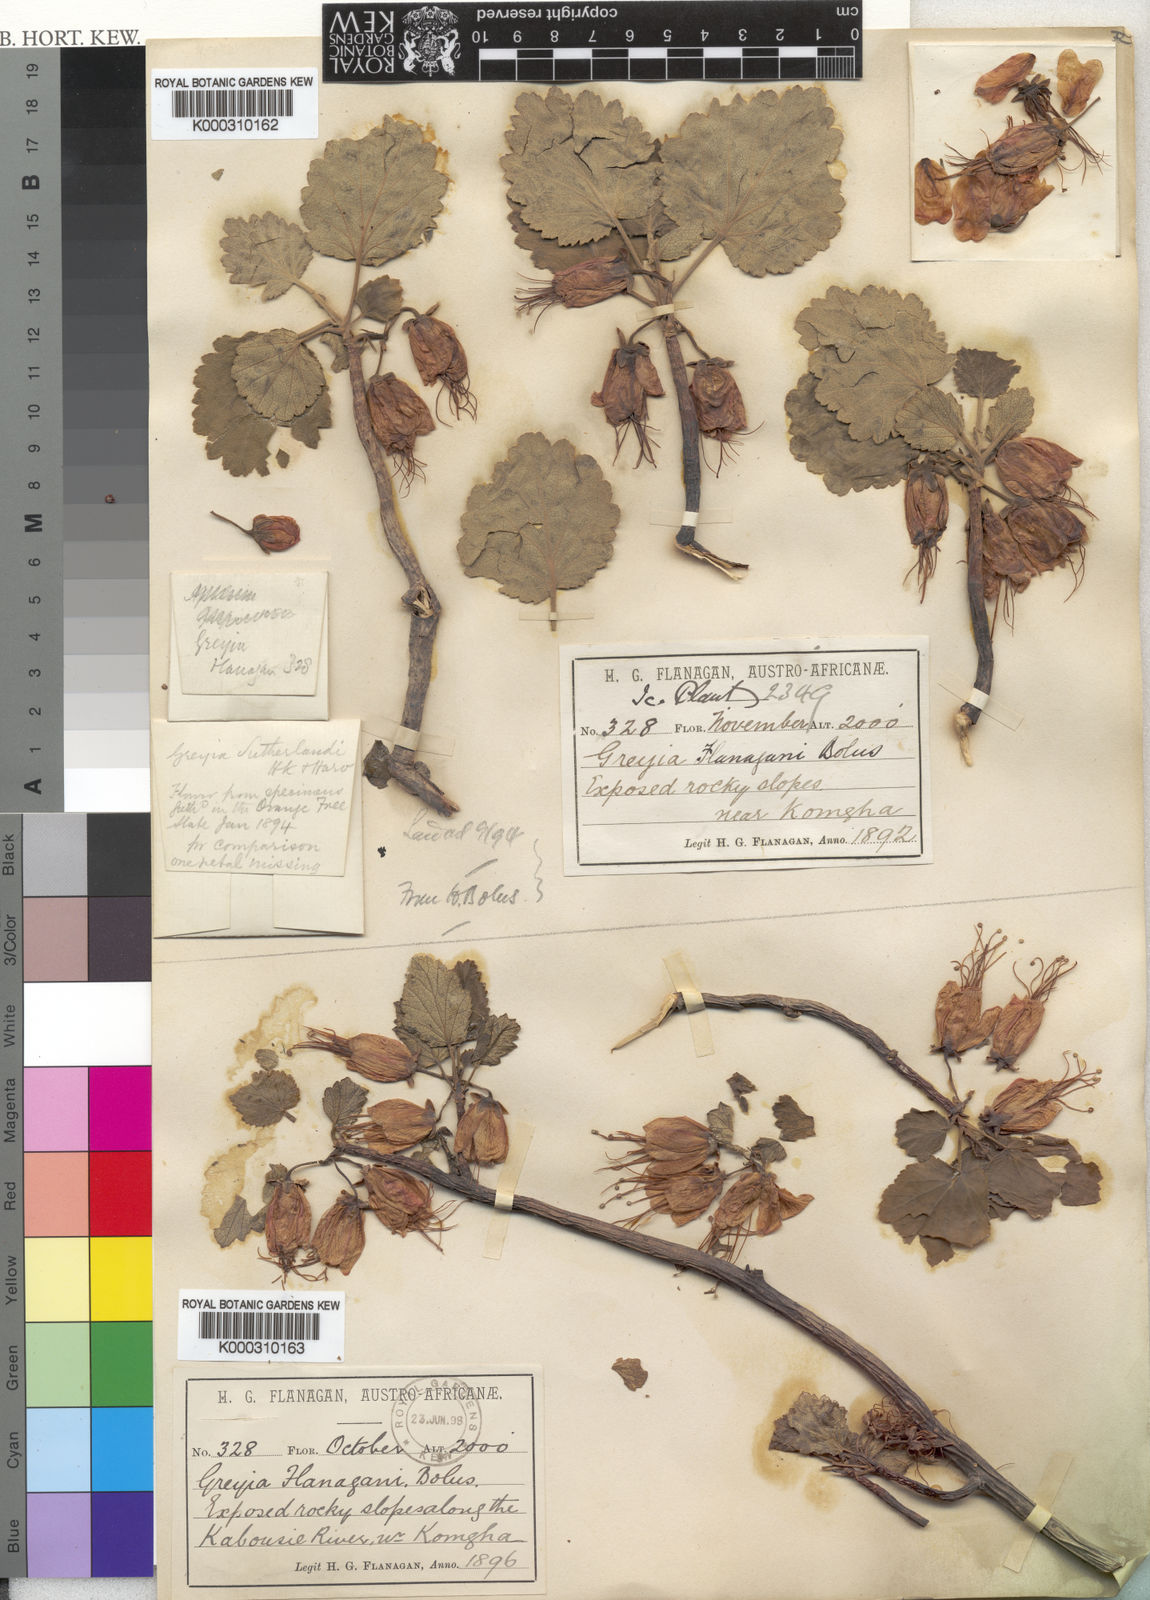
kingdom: Plantae
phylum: Tracheophyta
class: Magnoliopsida
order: Geraniales
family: Francoaceae
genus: Greyia
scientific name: Greyia flanaganii
